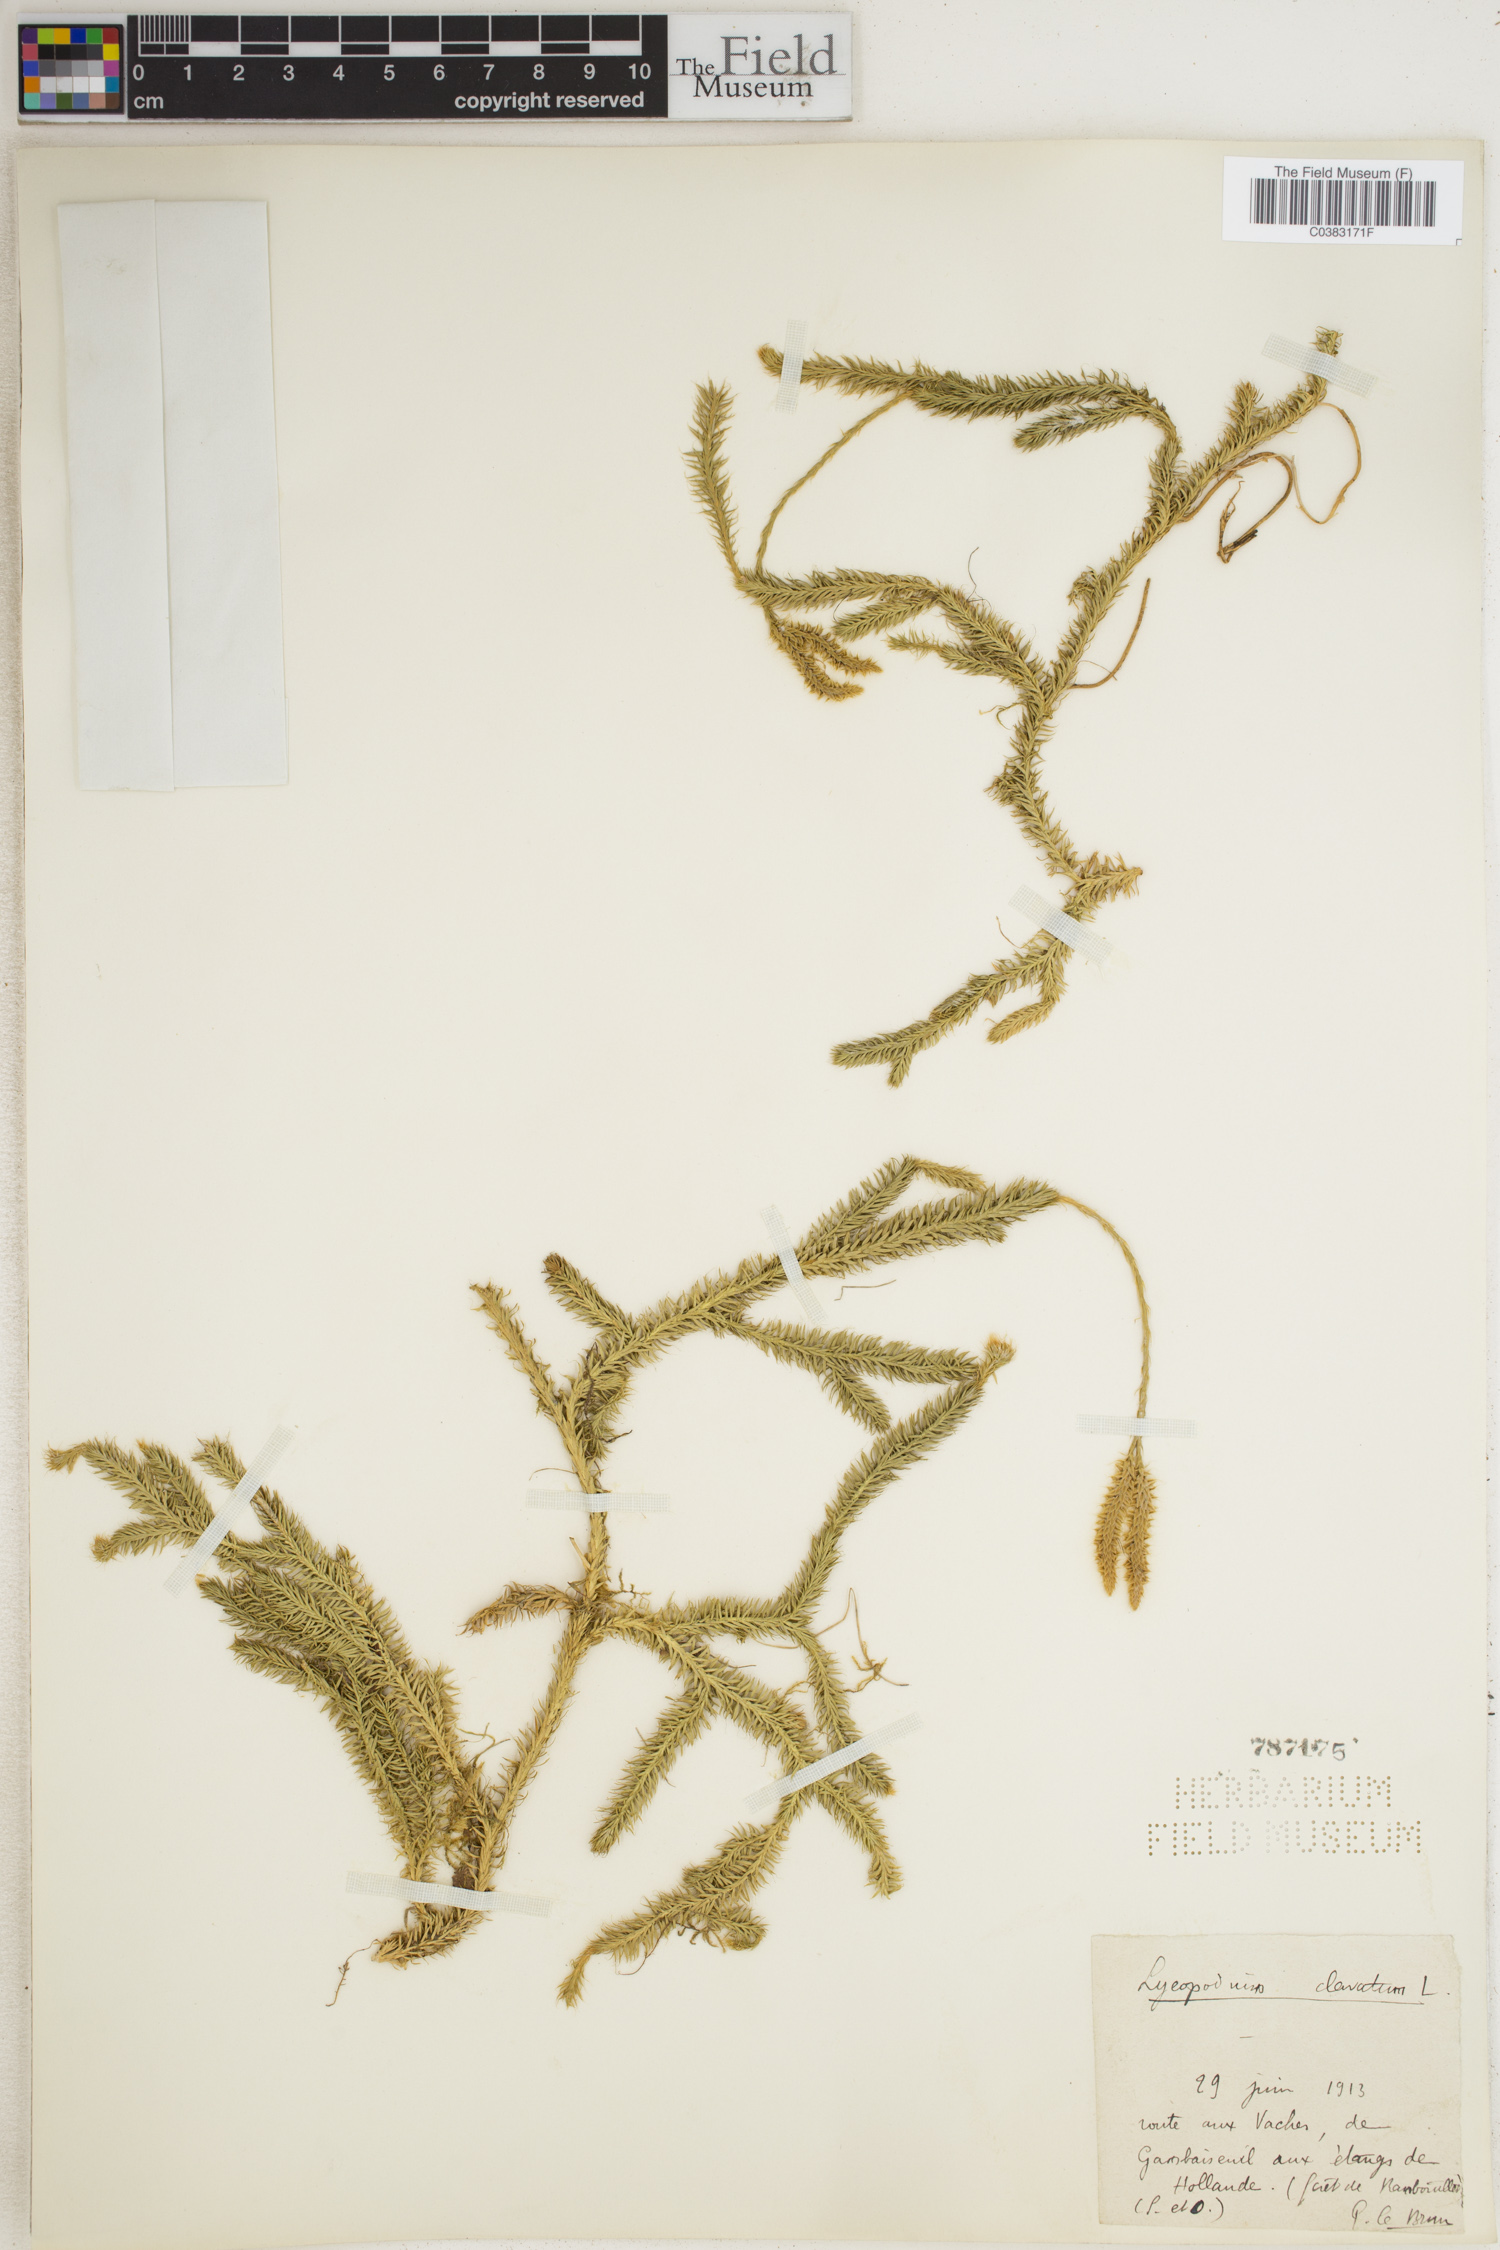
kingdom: Plantae
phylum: Tracheophyta
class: Lycopodiopsida
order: Lycopodiales
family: Lycopodiaceae
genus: Lycopodium
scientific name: Lycopodium clavatum
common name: Stag's-horn clubmoss
